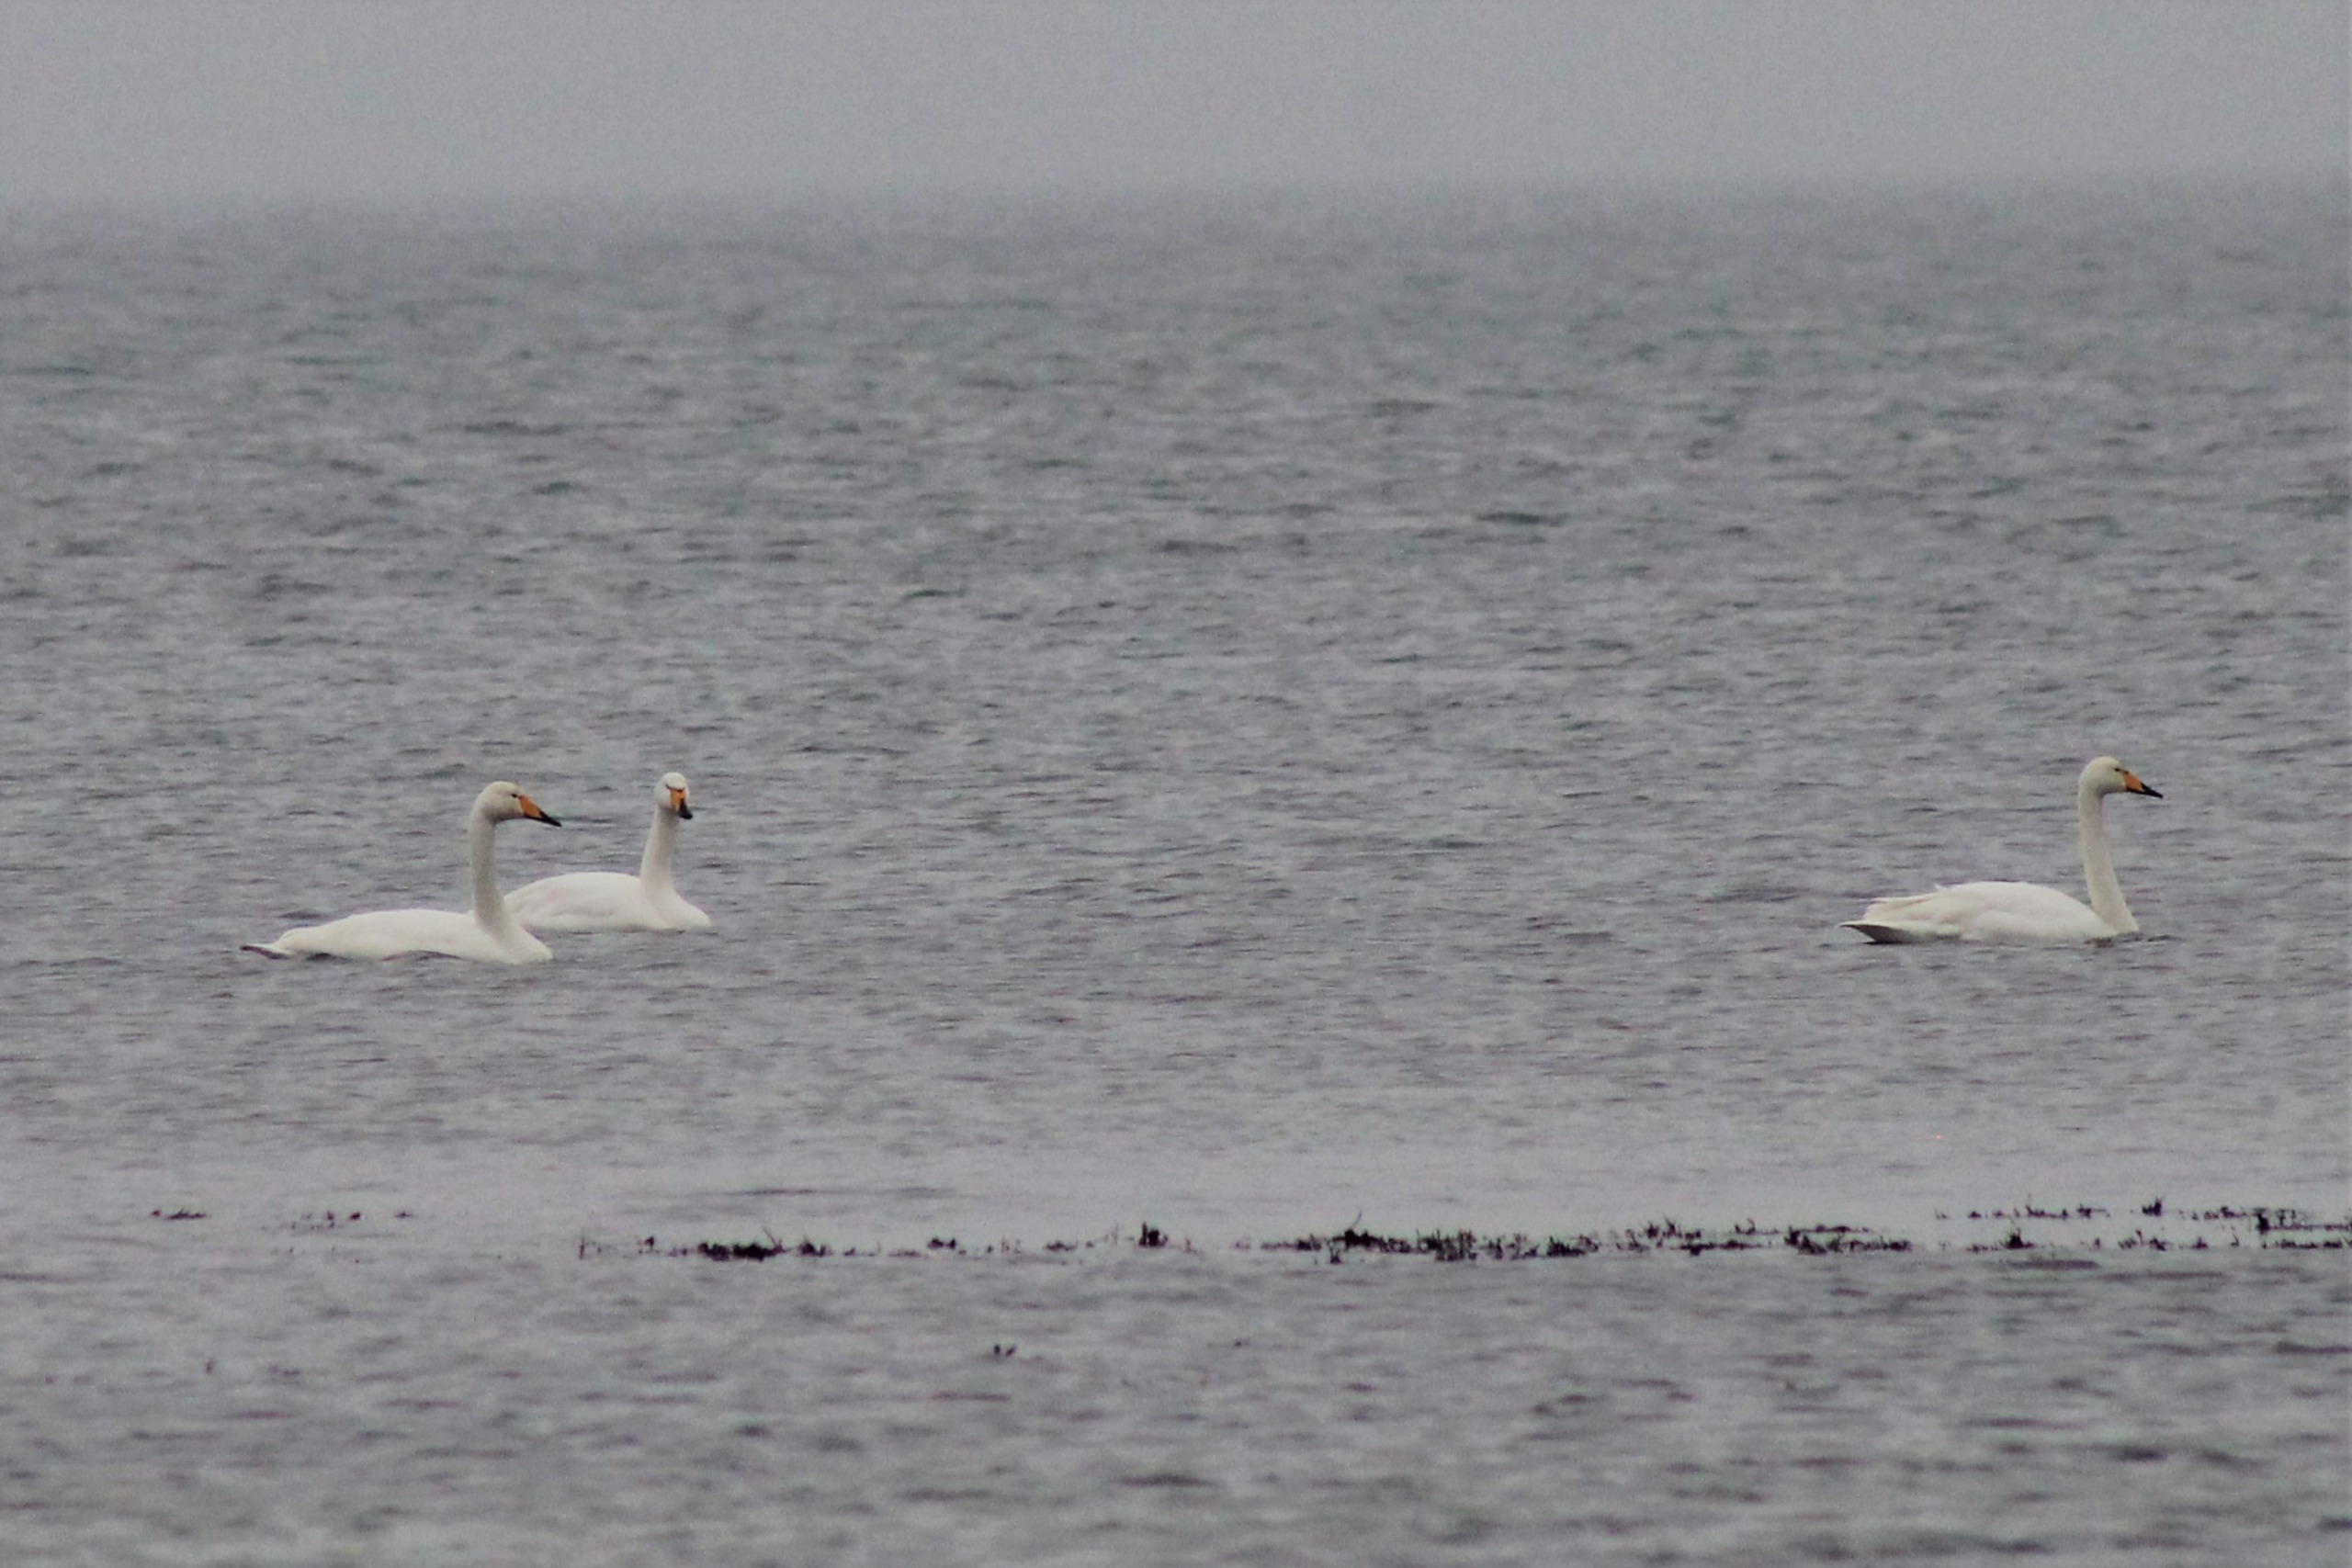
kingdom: Animalia
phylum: Chordata
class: Aves
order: Anseriformes
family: Anatidae
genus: Cygnus
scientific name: Cygnus cygnus
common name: Sangsvane
